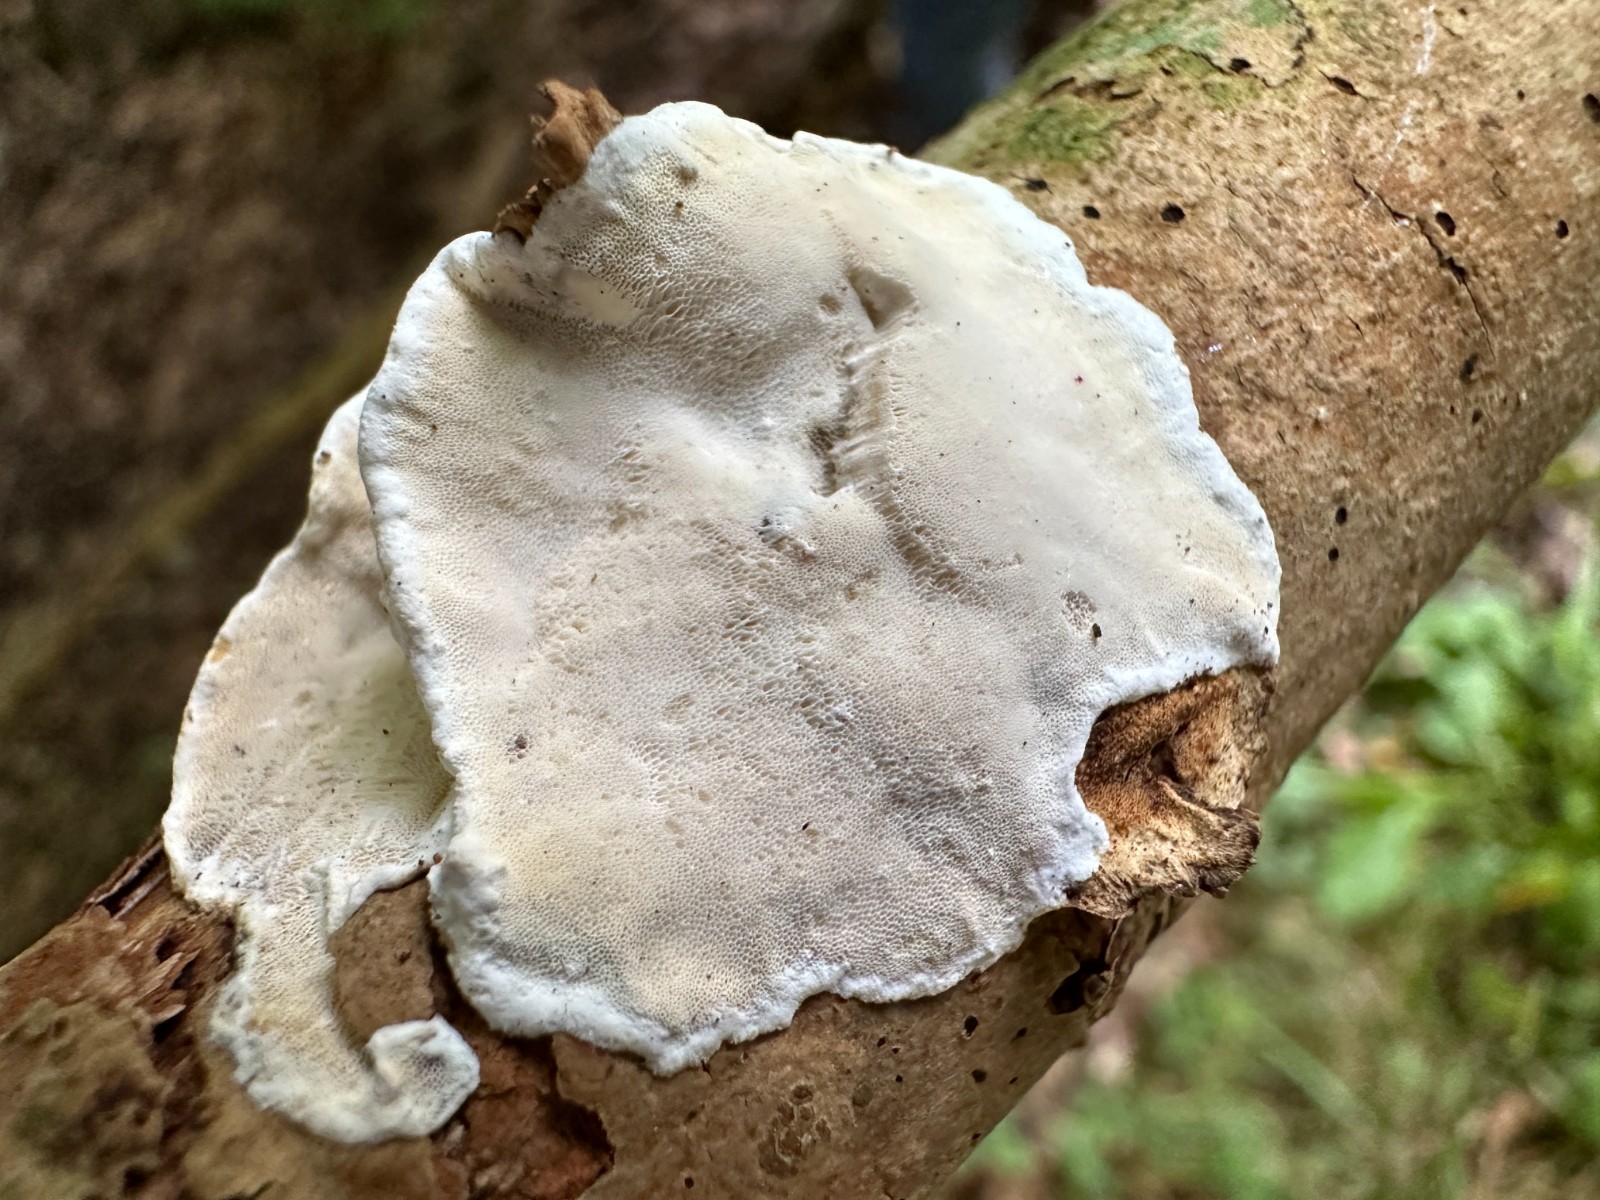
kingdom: Fungi
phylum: Basidiomycota
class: Agaricomycetes
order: Polyporales
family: Incrustoporiaceae
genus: Skeletocutis
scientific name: Skeletocutis nemoralis
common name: stor krystalporesvamp
